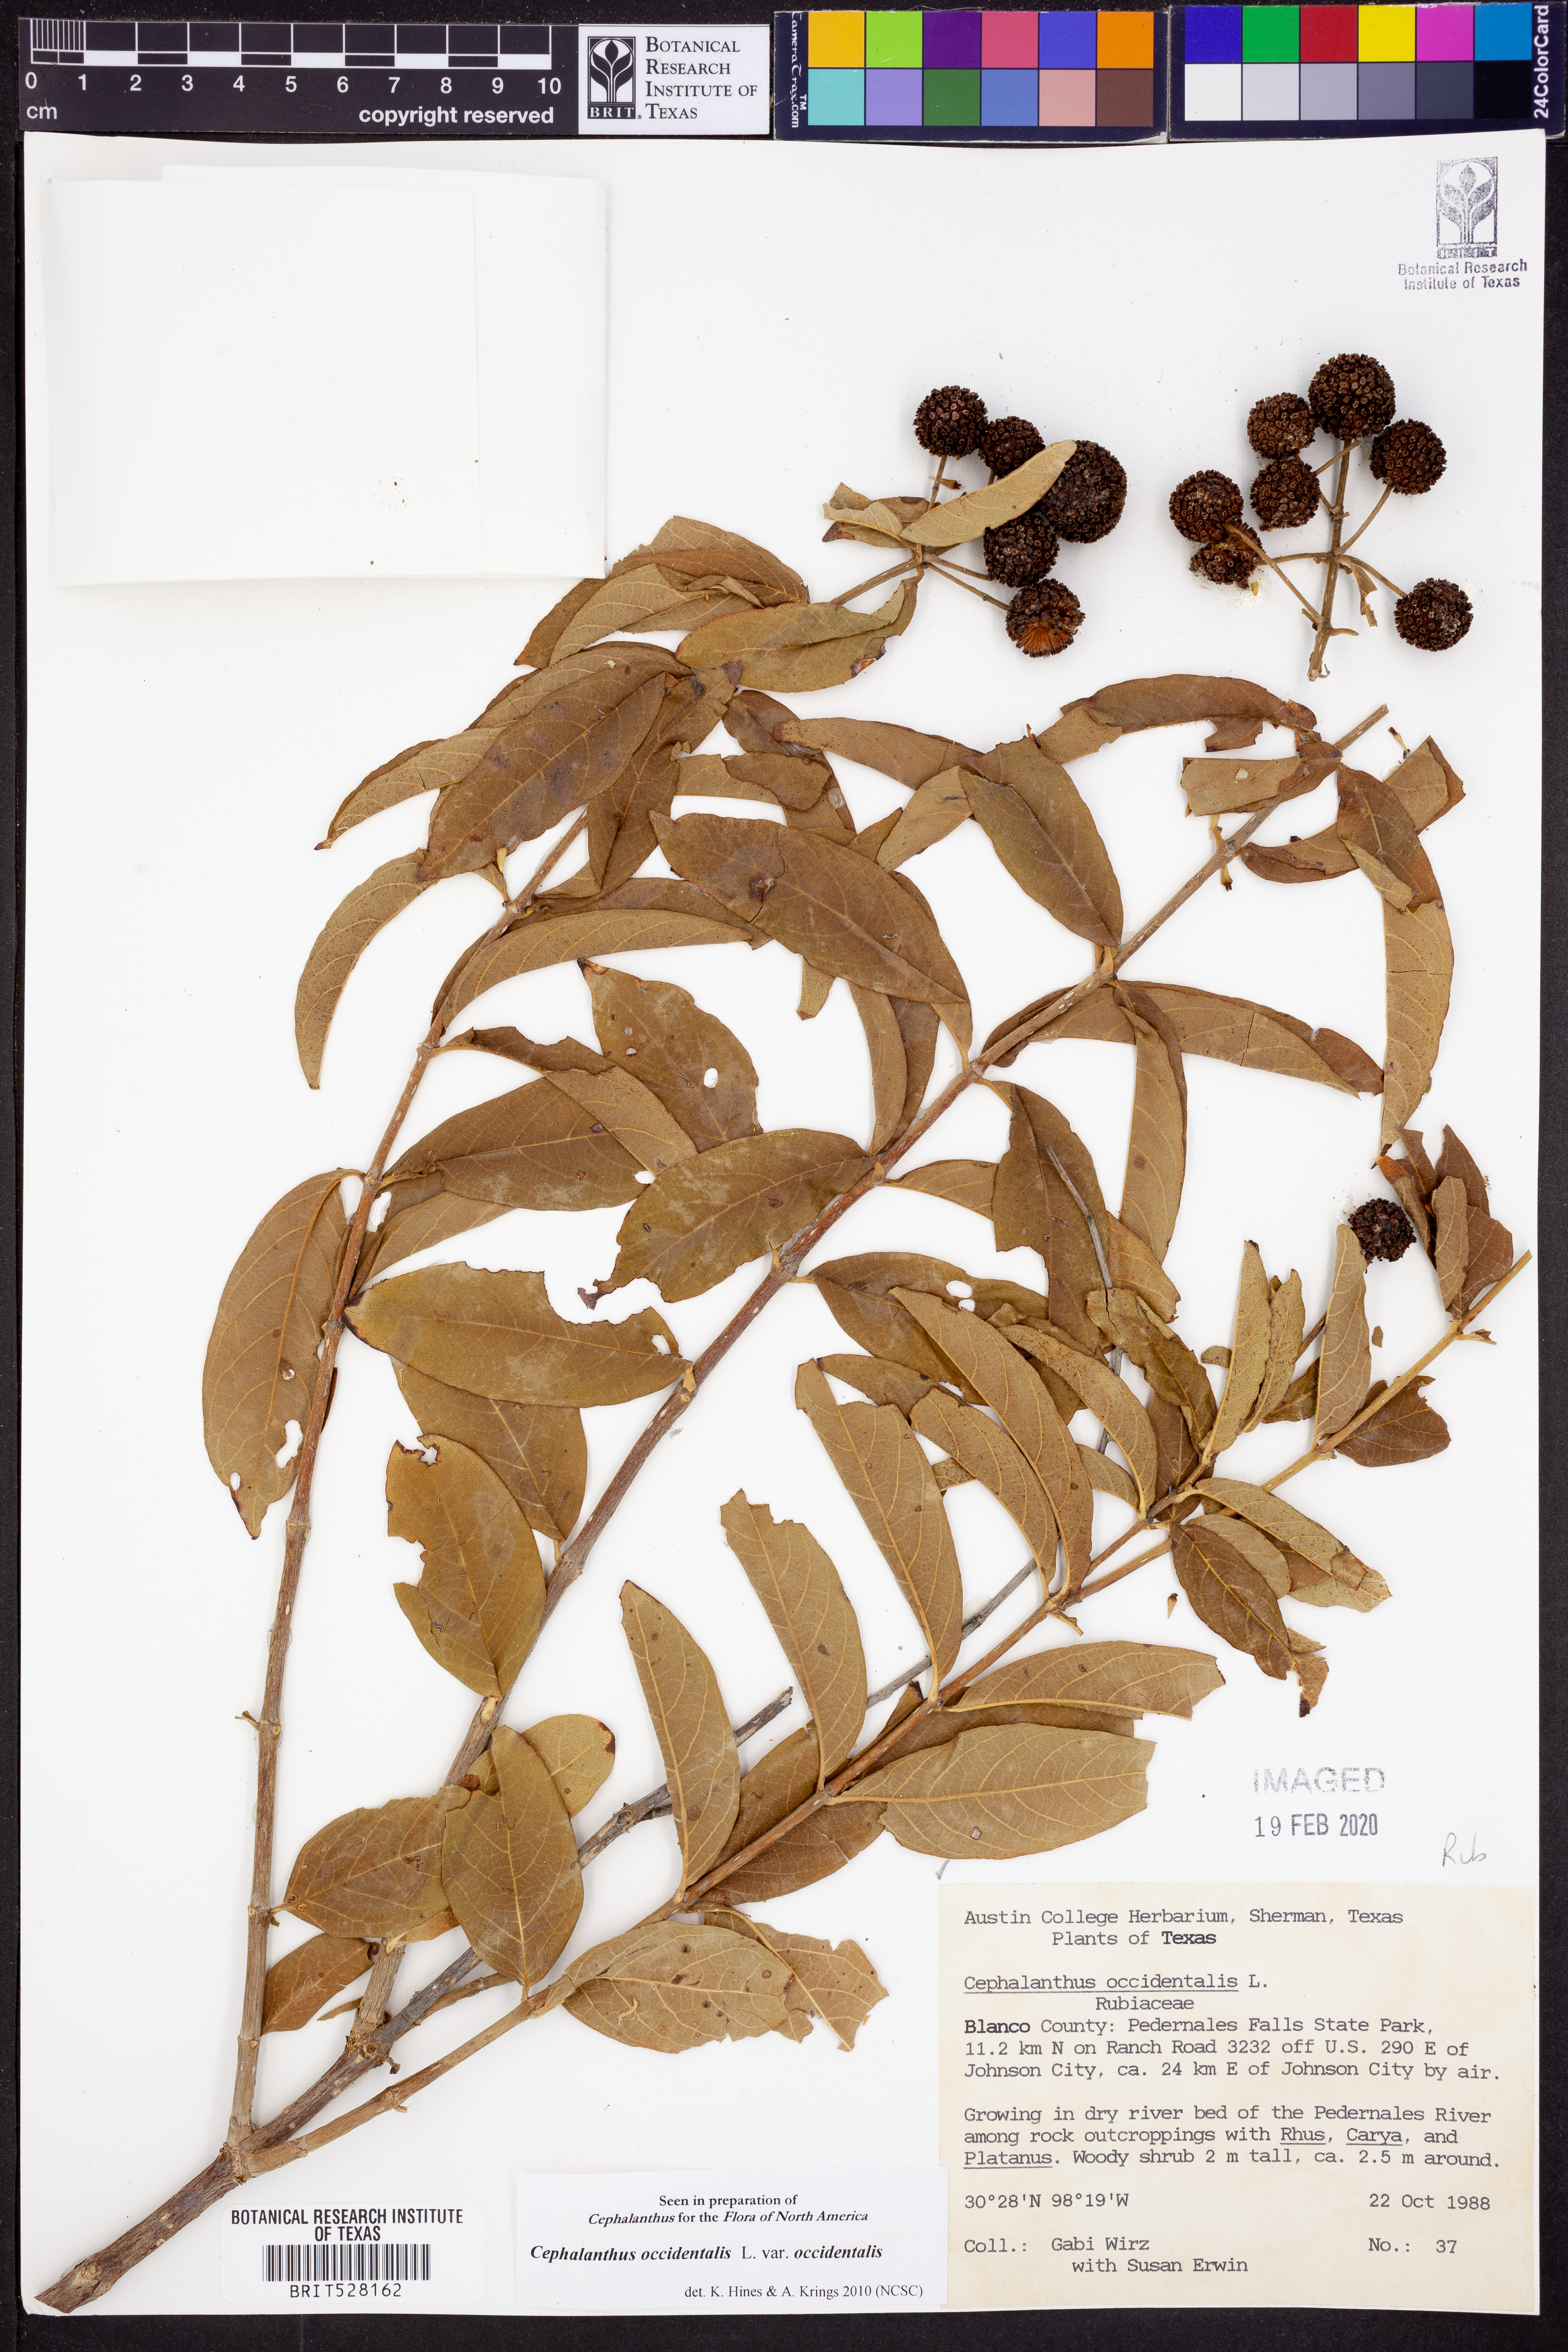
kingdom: Plantae
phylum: Tracheophyta
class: Magnoliopsida
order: Gentianales
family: Rubiaceae
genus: Cephalanthus
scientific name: Cephalanthus occidentalis
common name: Button-willow
